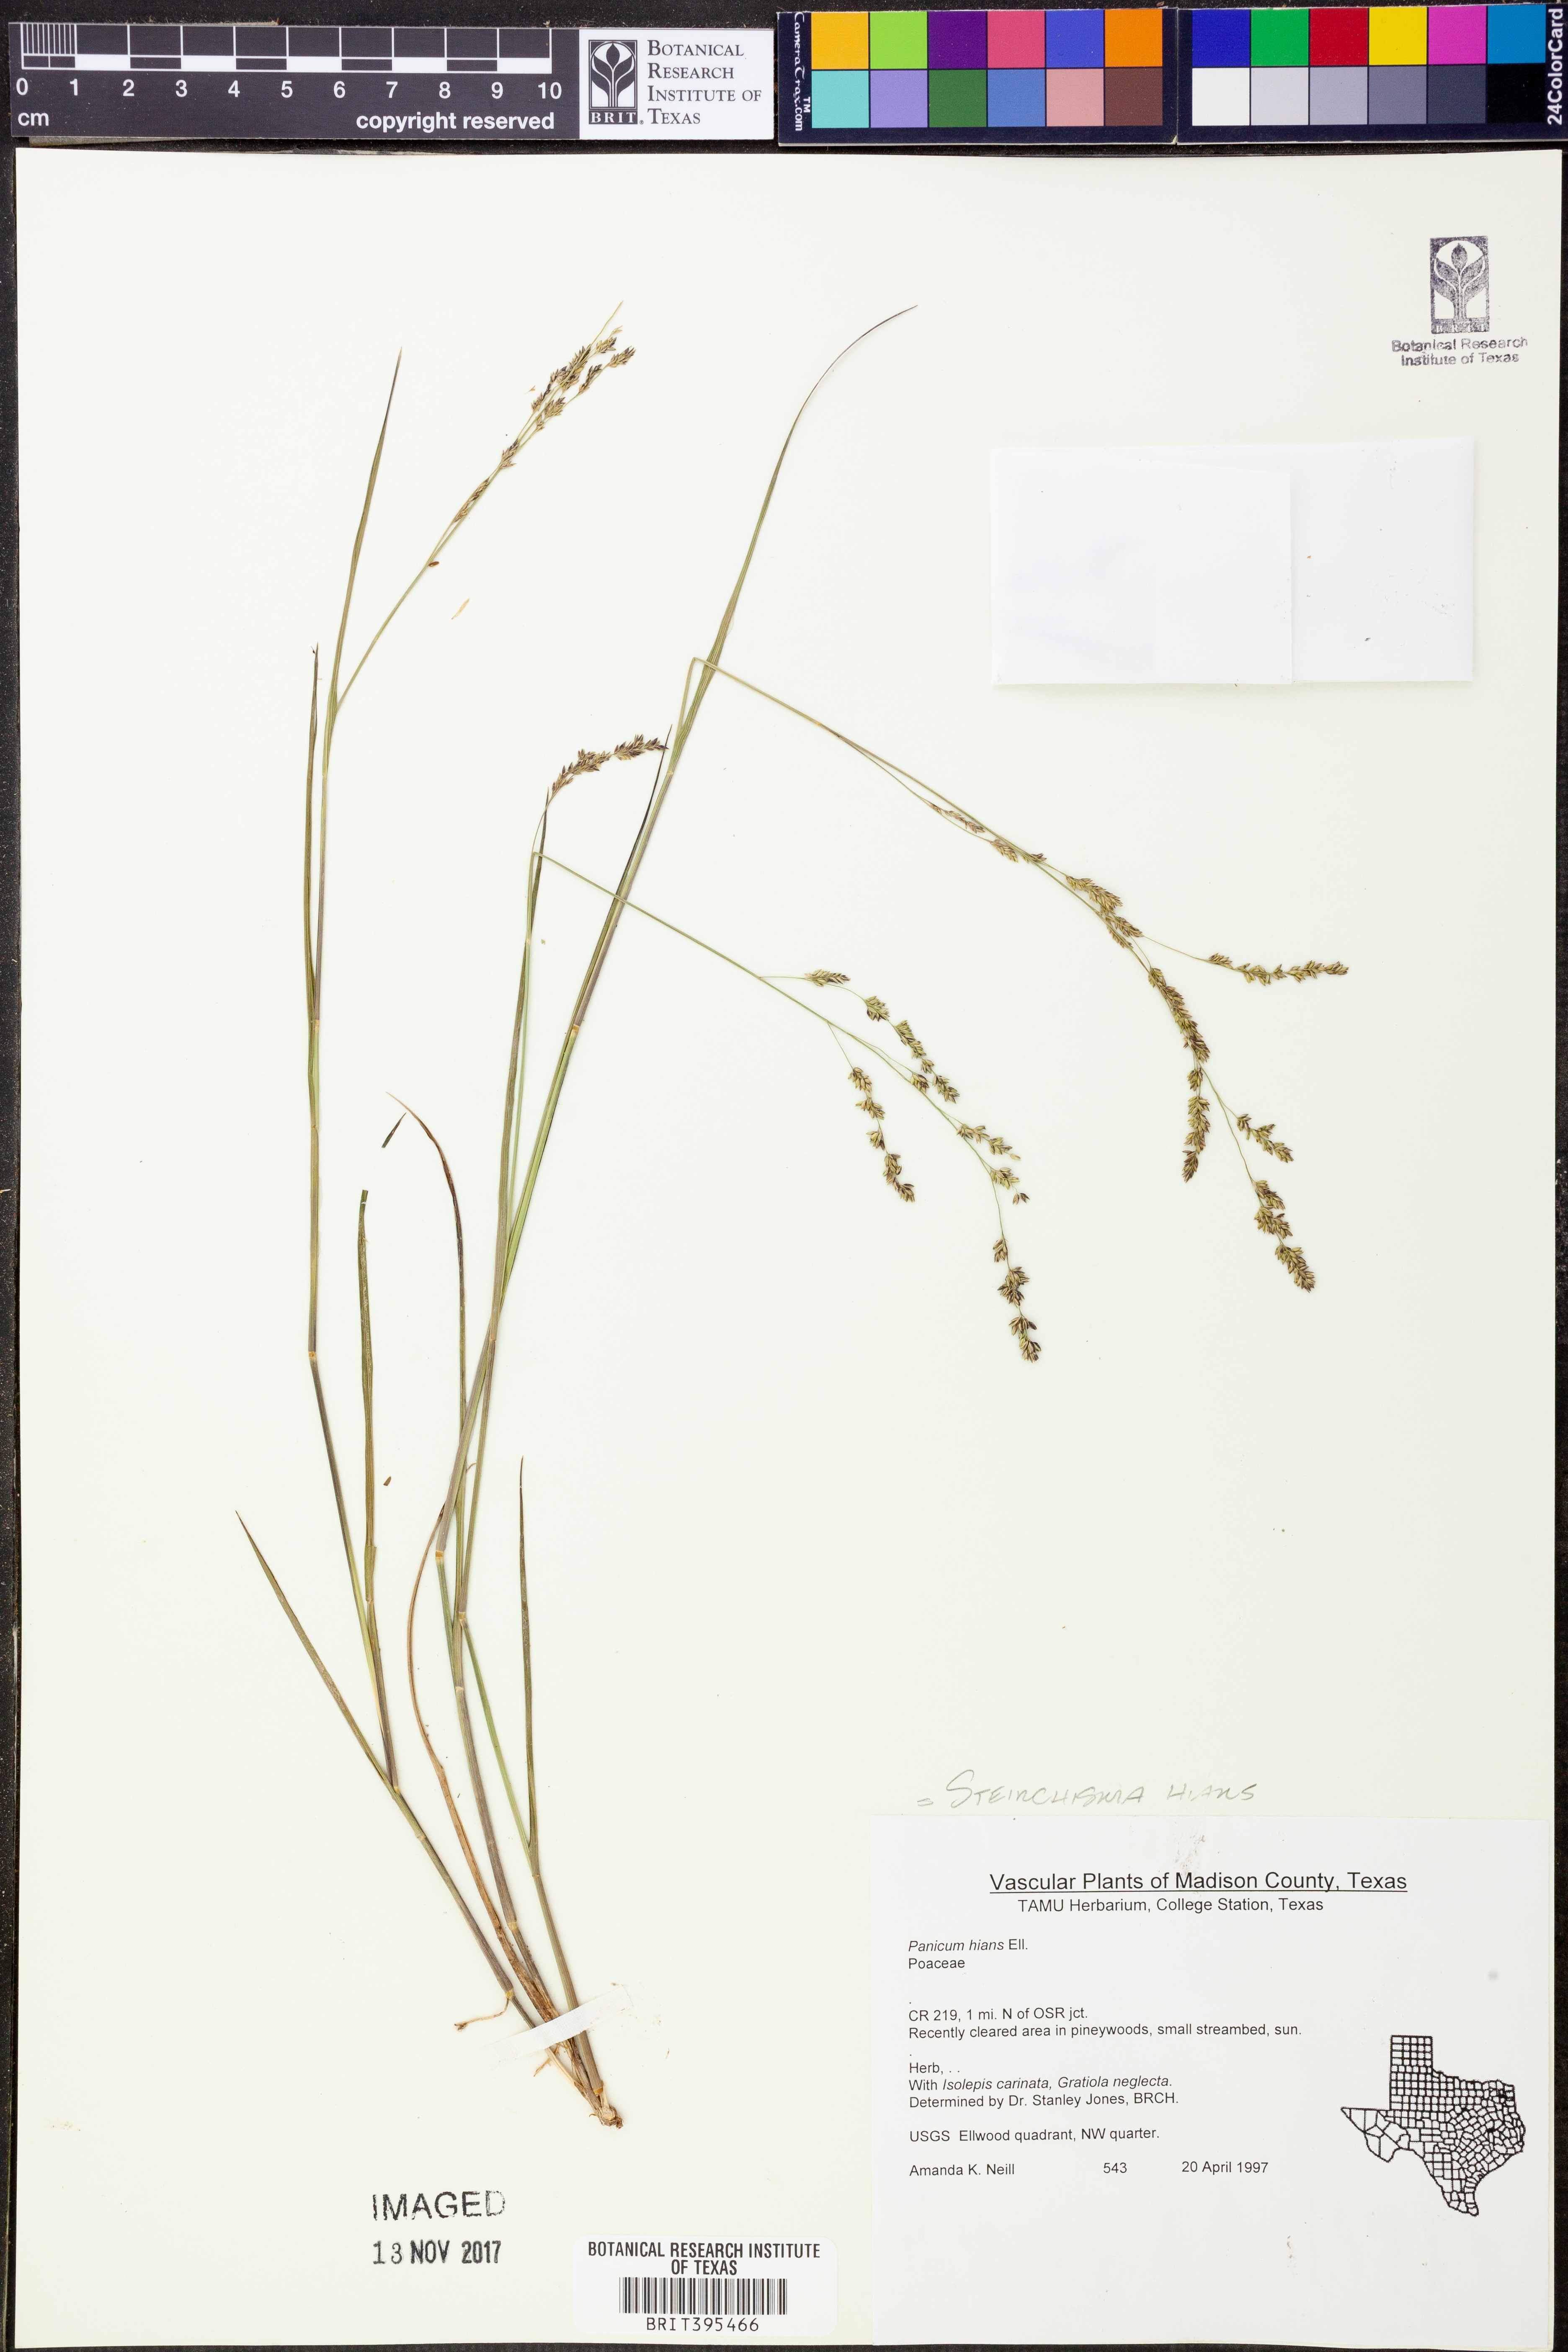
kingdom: Plantae
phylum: Tracheophyta
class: Liliopsida
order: Poales
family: Poaceae
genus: Coleataenia
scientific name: Coleataenia stenodes
